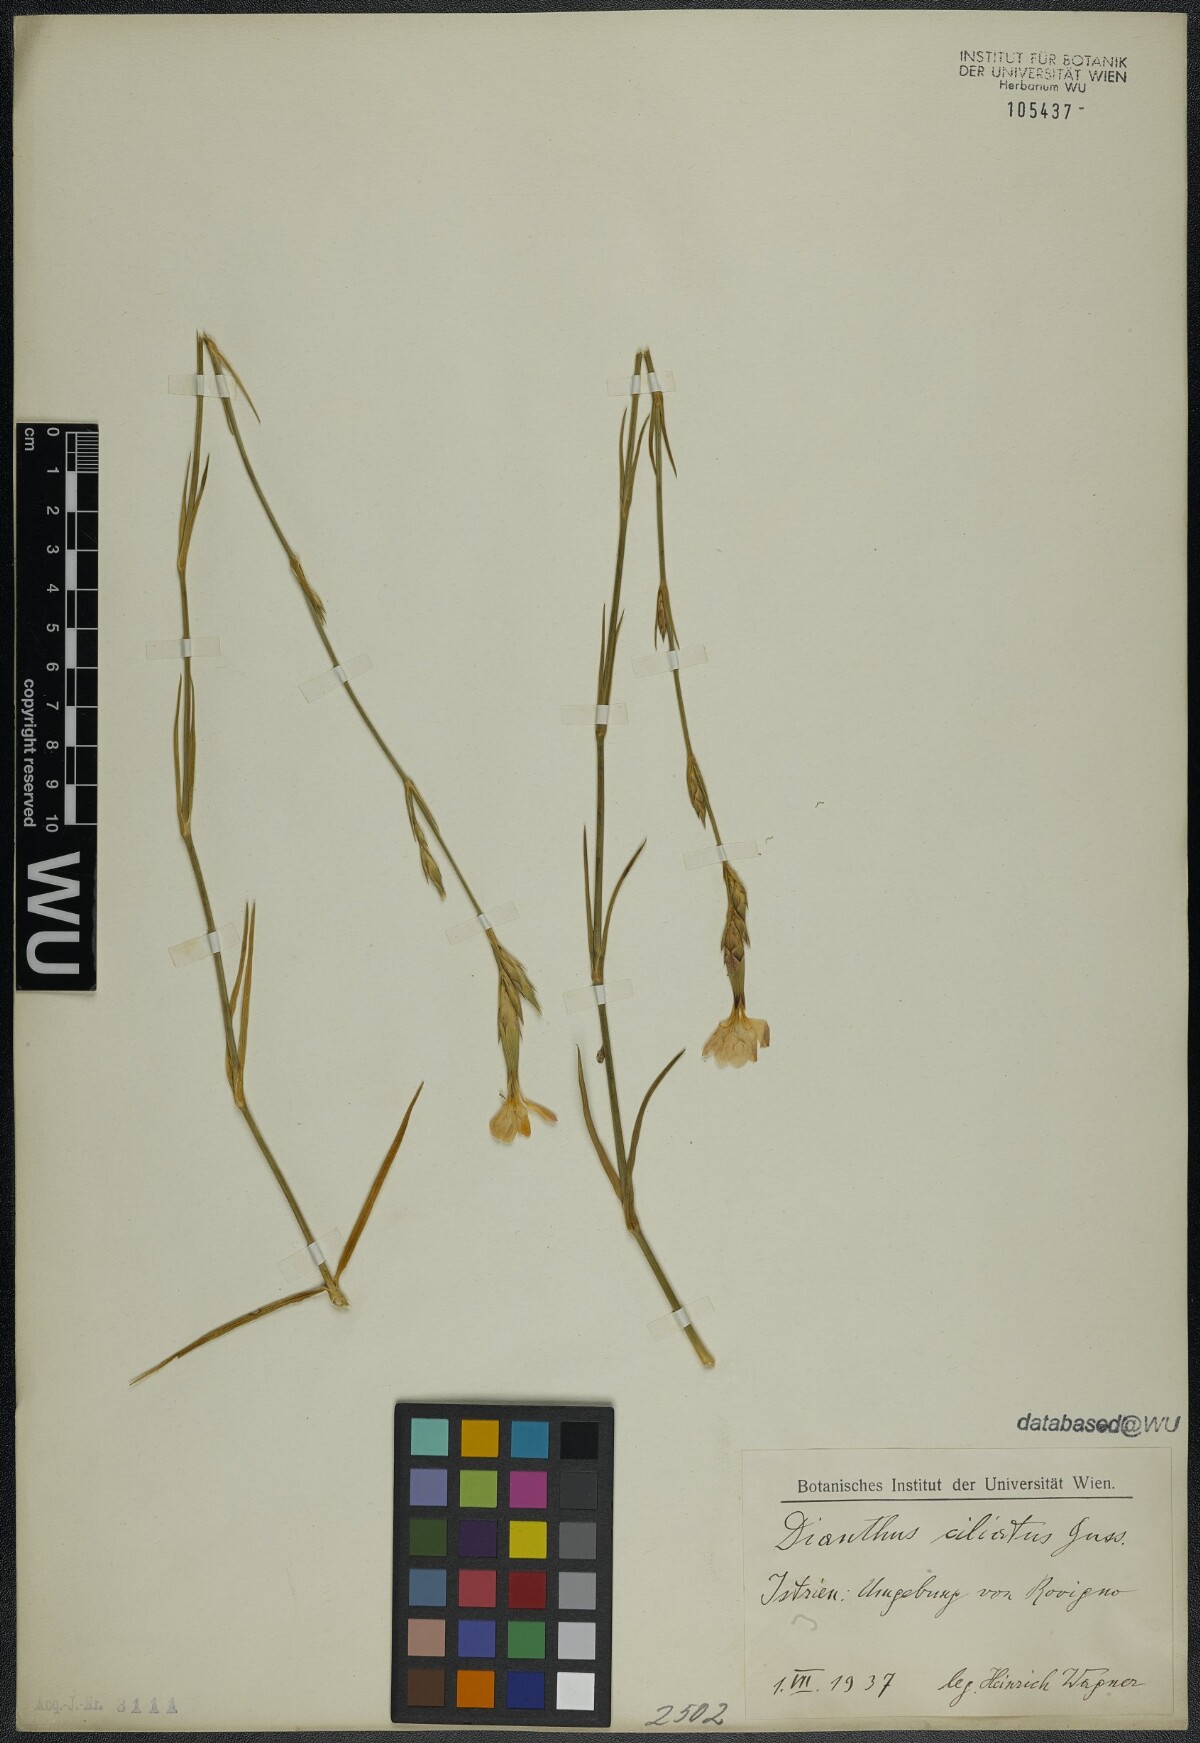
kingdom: Plantae
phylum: Tracheophyta
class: Magnoliopsida
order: Caryophyllales
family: Caryophyllaceae
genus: Dianthus
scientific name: Dianthus ciliatus
